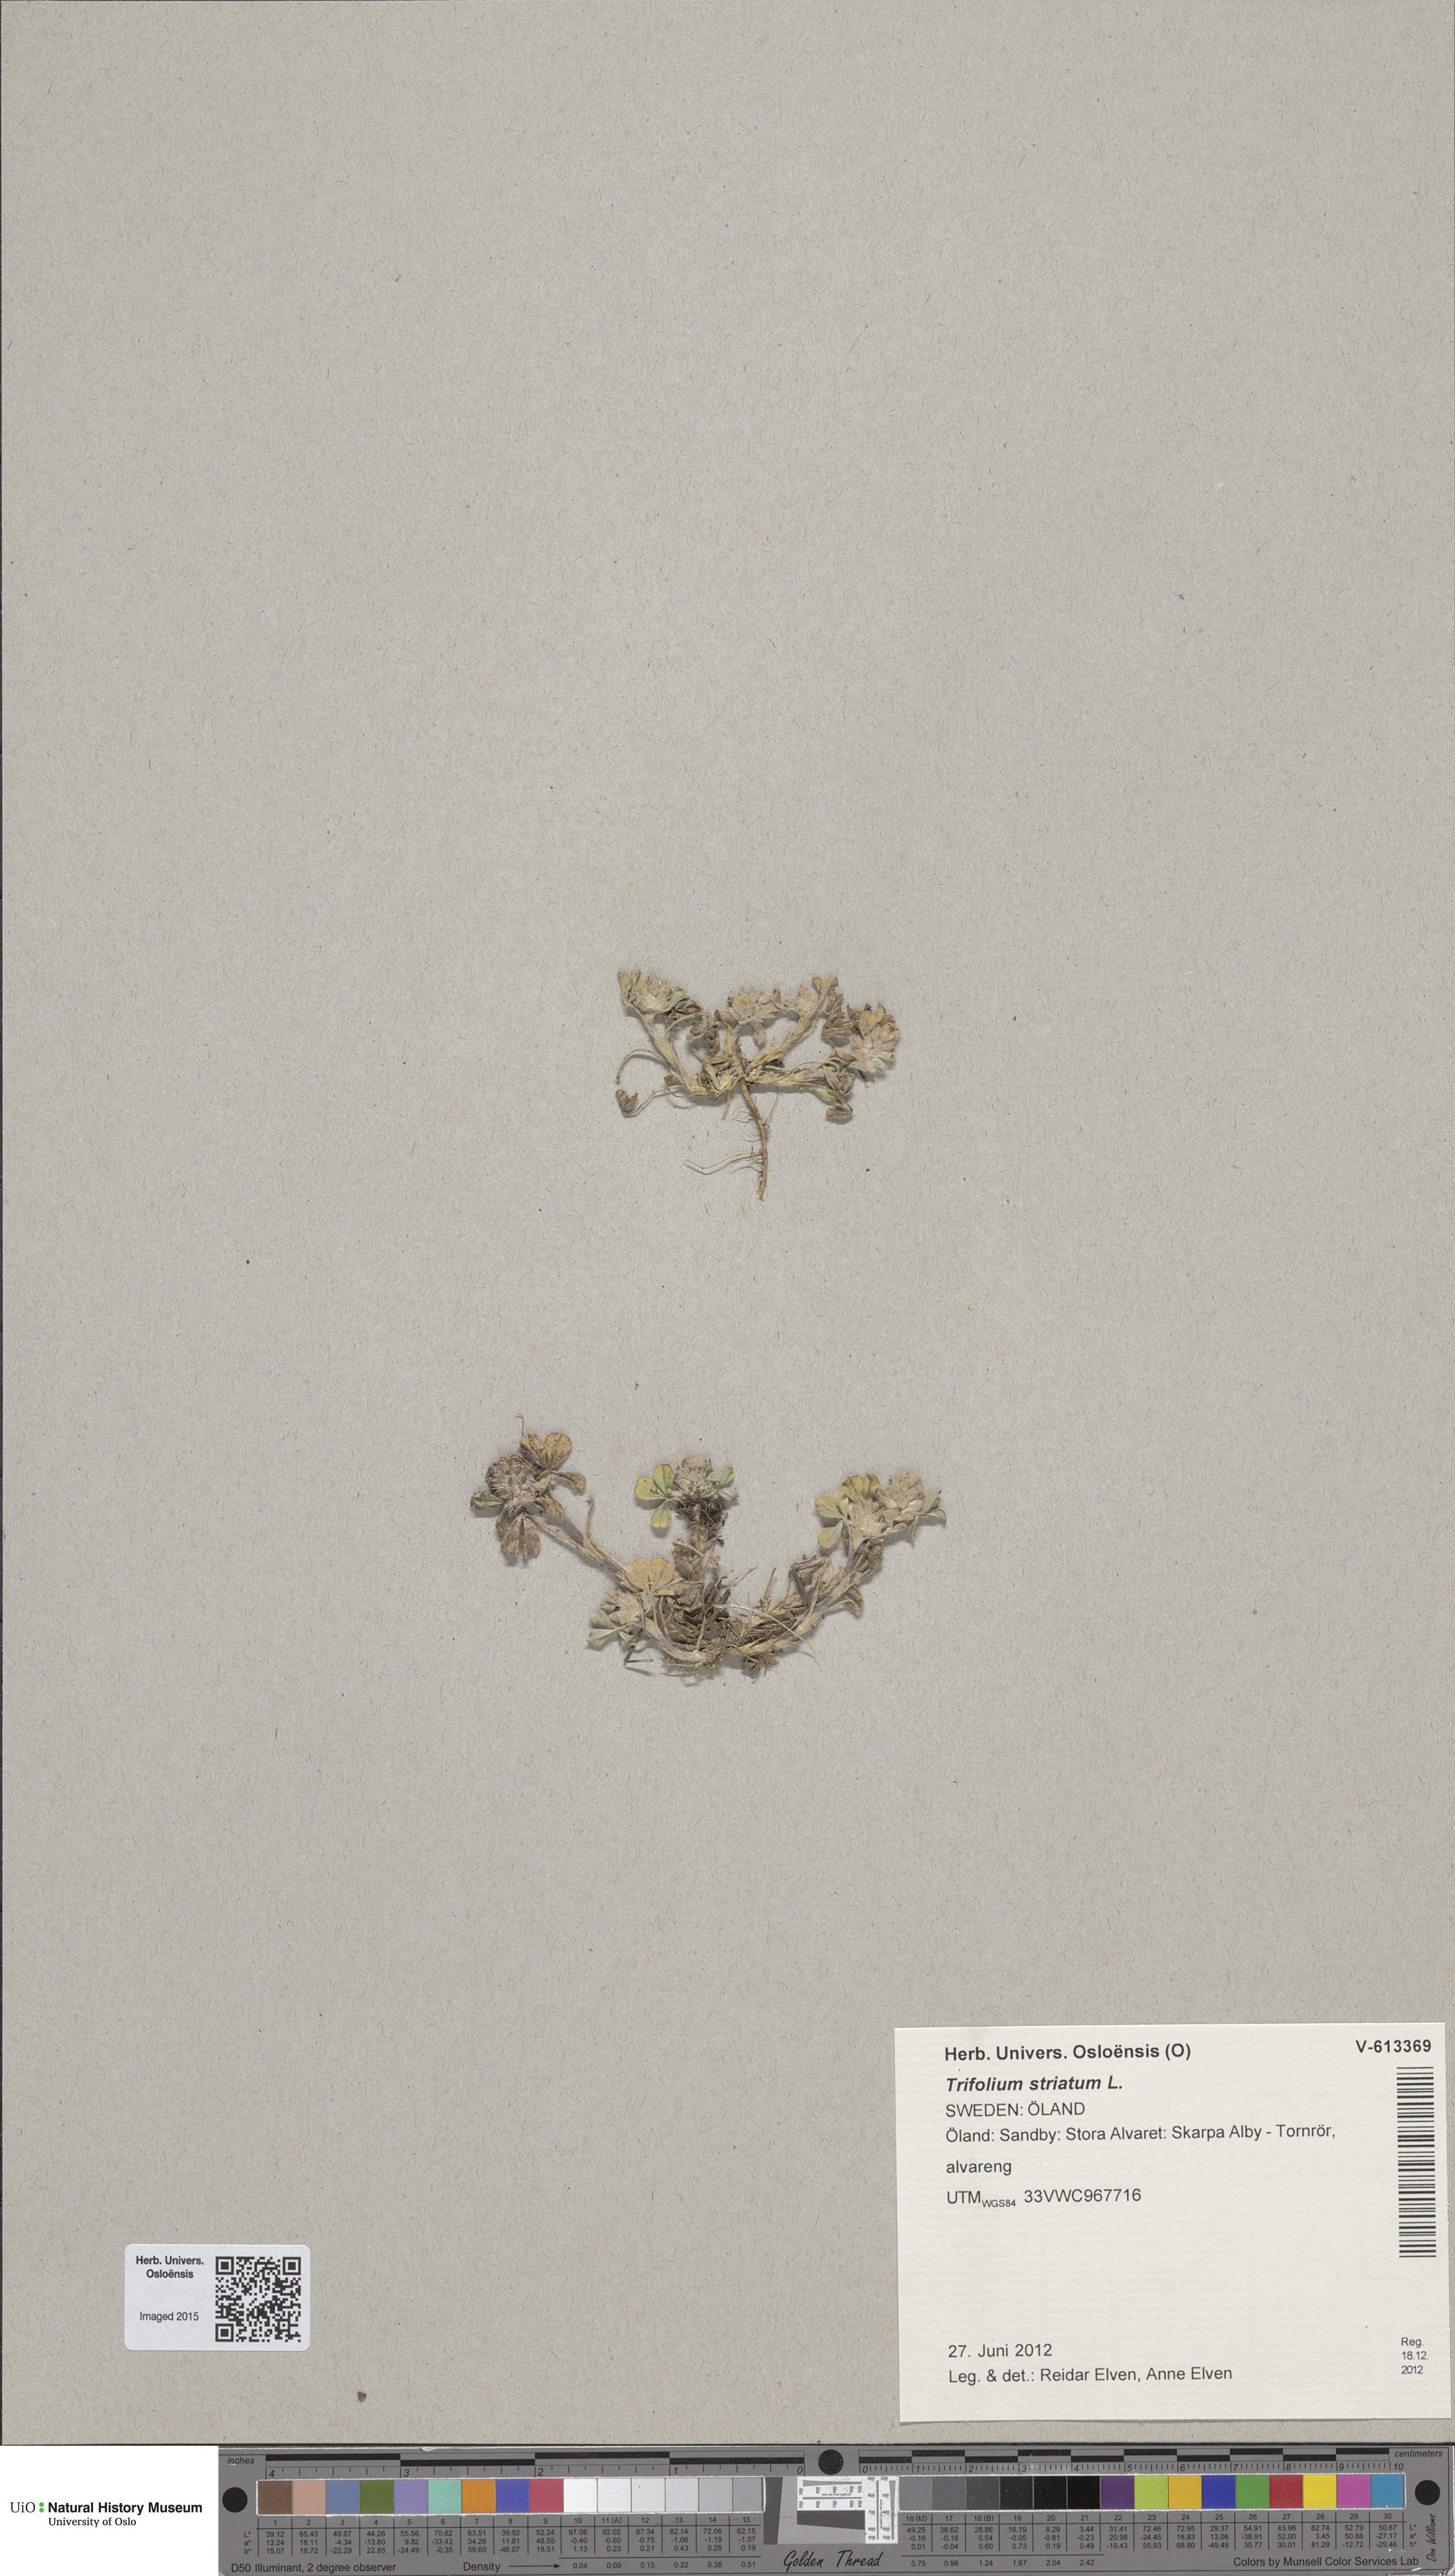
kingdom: Plantae
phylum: Tracheophyta
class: Magnoliopsida
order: Fabales
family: Fabaceae
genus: Trifolium
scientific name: Trifolium striatum
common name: Knotted clover
